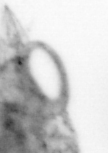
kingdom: Animalia
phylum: Arthropoda
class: Copepoda
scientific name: Copepoda
